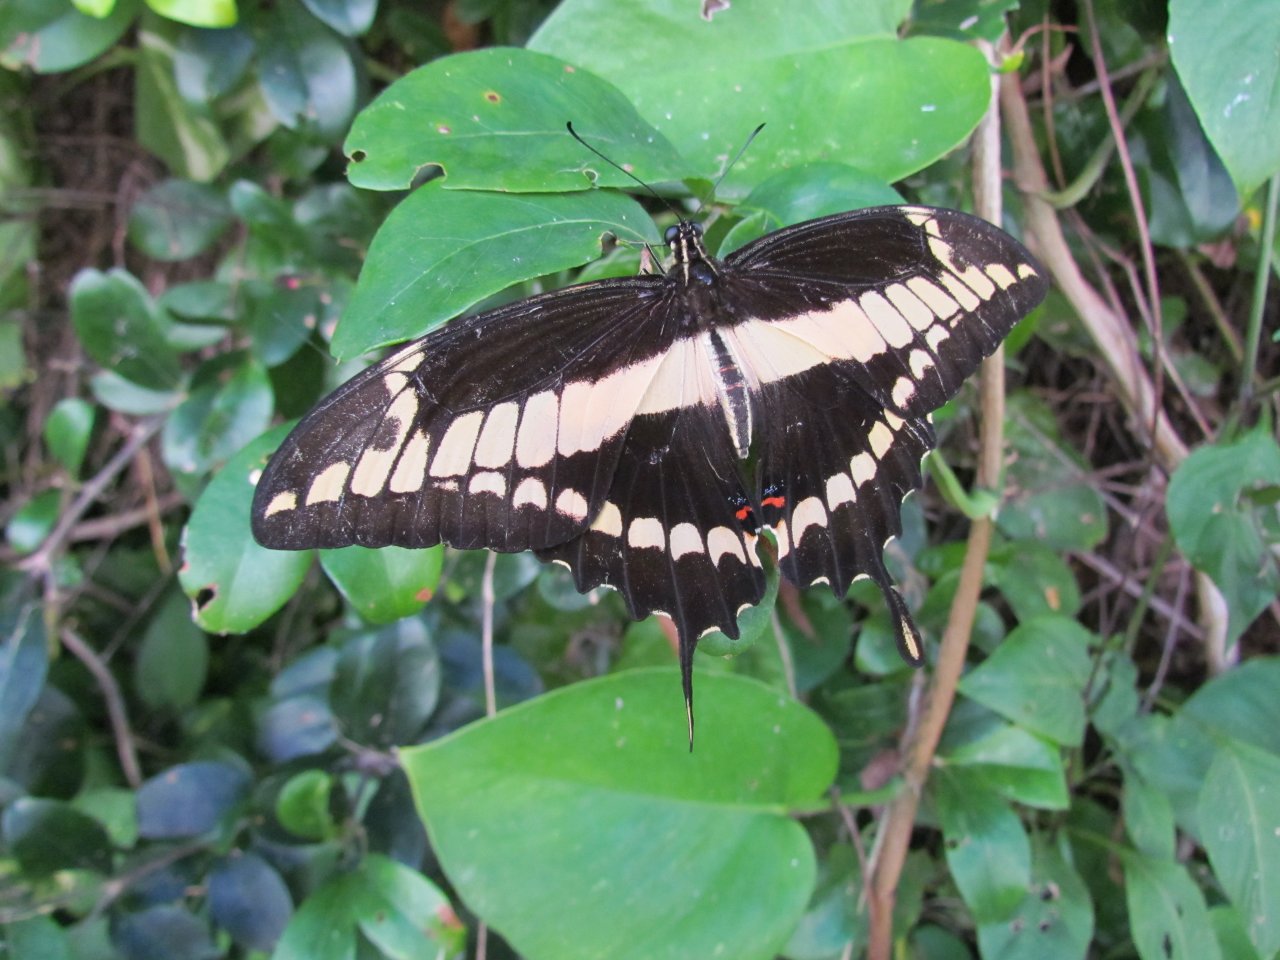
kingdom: Animalia
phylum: Arthropoda
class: Insecta
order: Lepidoptera
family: Papilionidae
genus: Papilio
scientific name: Papilio thoas
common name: Thoas Swallowtail
